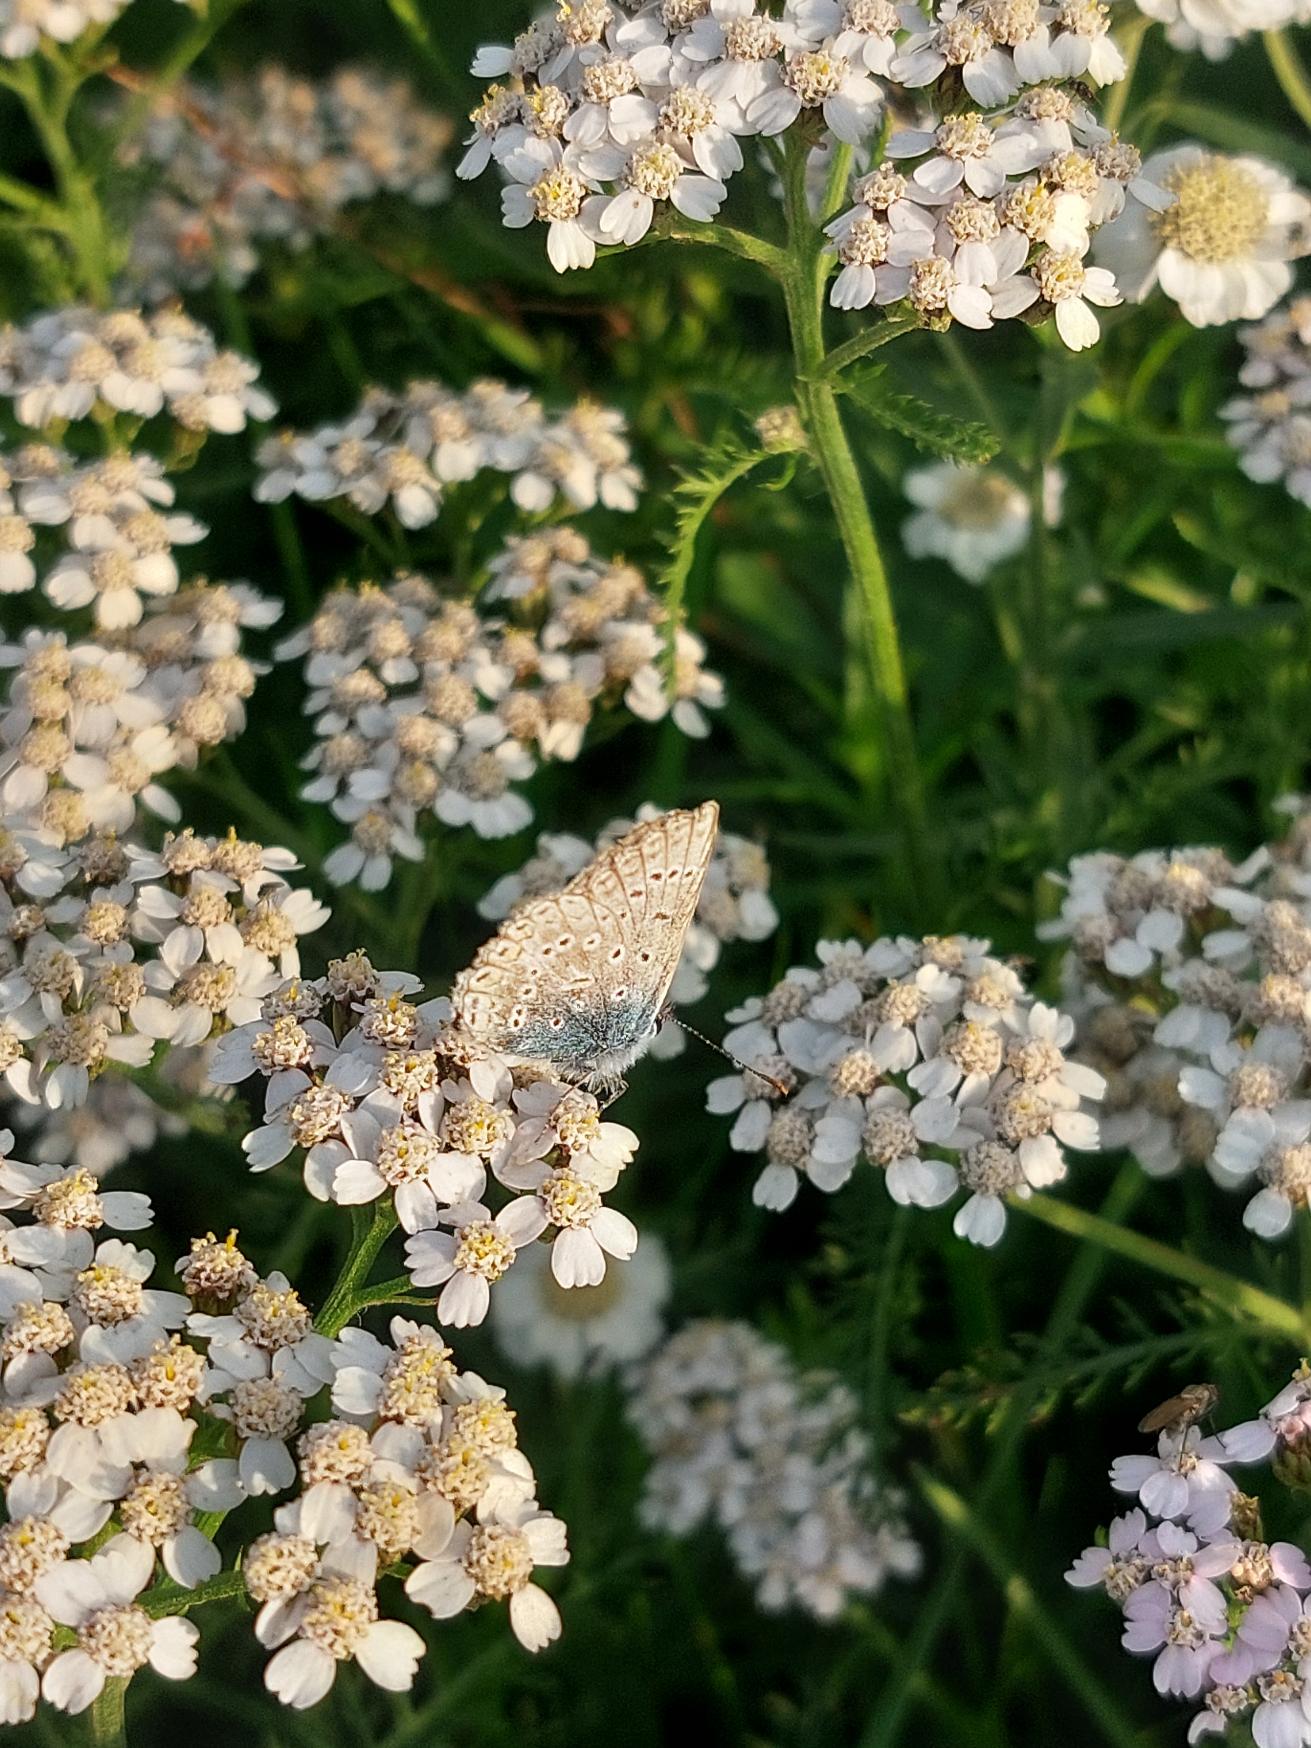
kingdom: Animalia
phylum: Arthropoda
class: Insecta
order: Lepidoptera
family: Lycaenidae
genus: Polyommatus
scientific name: Polyommatus icarus
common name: Almindelig blåfugl
